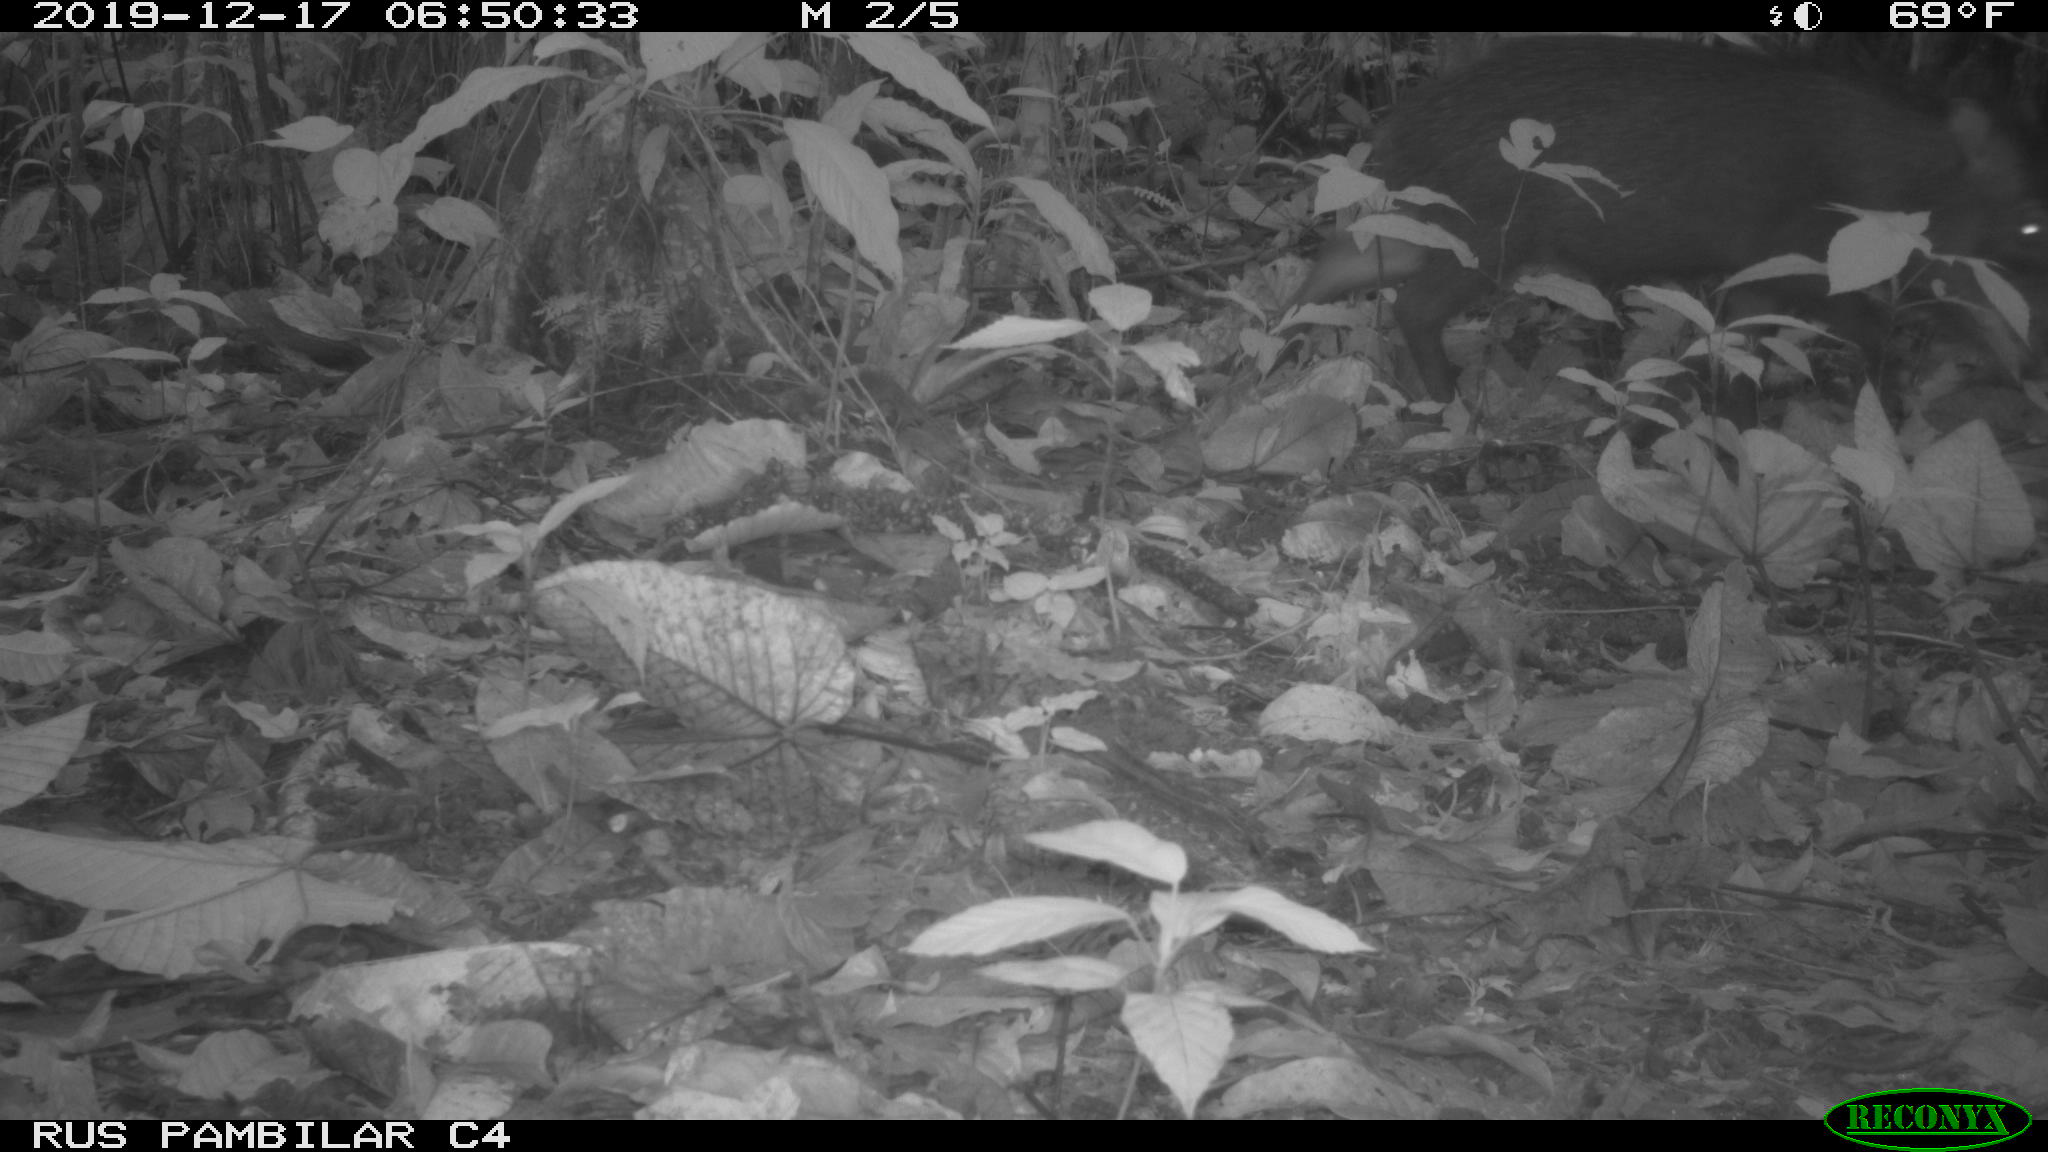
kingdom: Animalia
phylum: Chordata
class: Mammalia
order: Artiodactyla
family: Tayassuidae
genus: Tayassu
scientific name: Tayassu pecari
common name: White-lipped peccary
